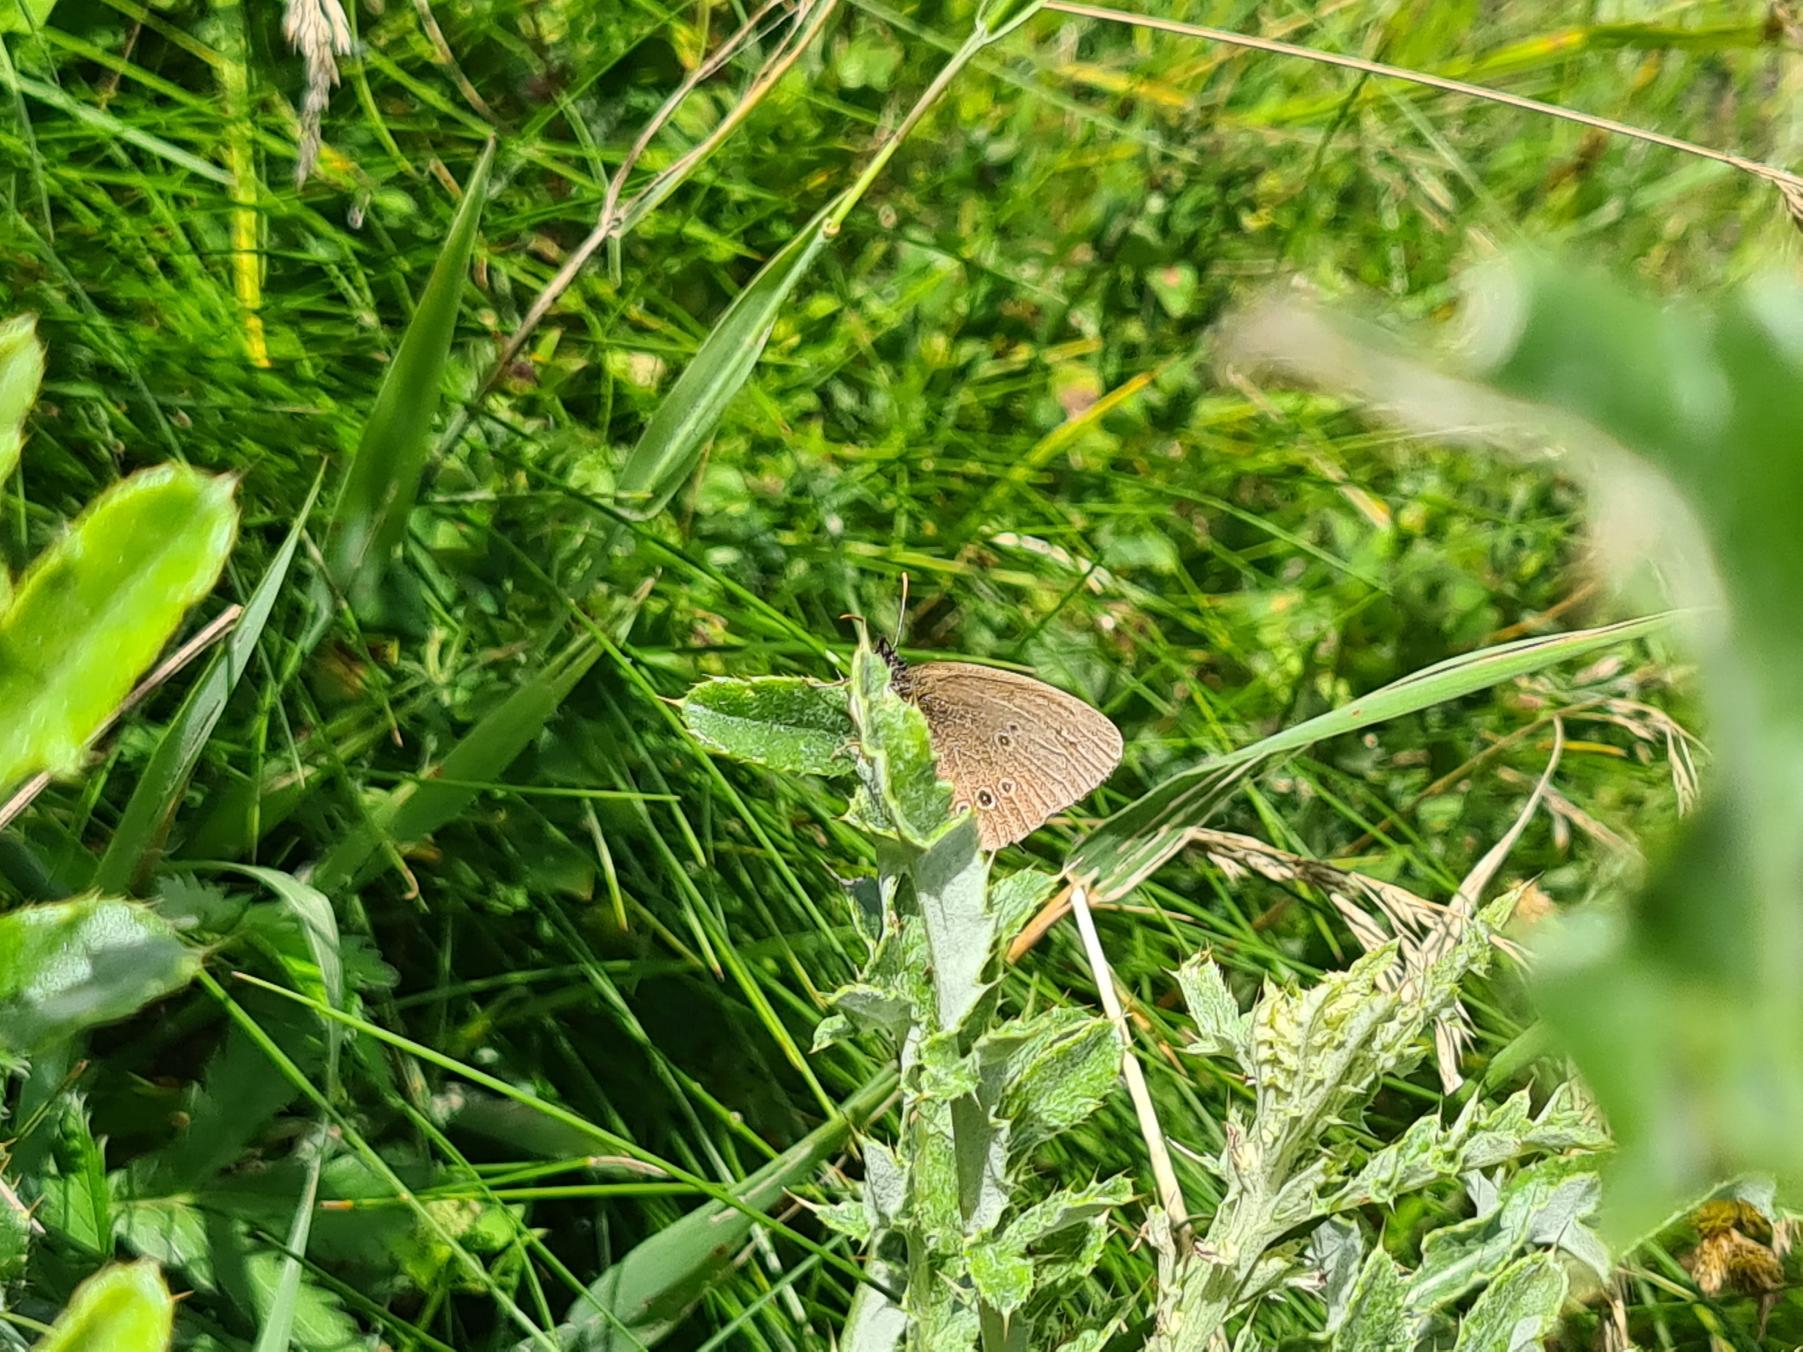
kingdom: Animalia
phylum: Arthropoda
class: Insecta
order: Lepidoptera
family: Nymphalidae
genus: Aphantopus
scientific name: Aphantopus hyperantus
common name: Engrandøje
